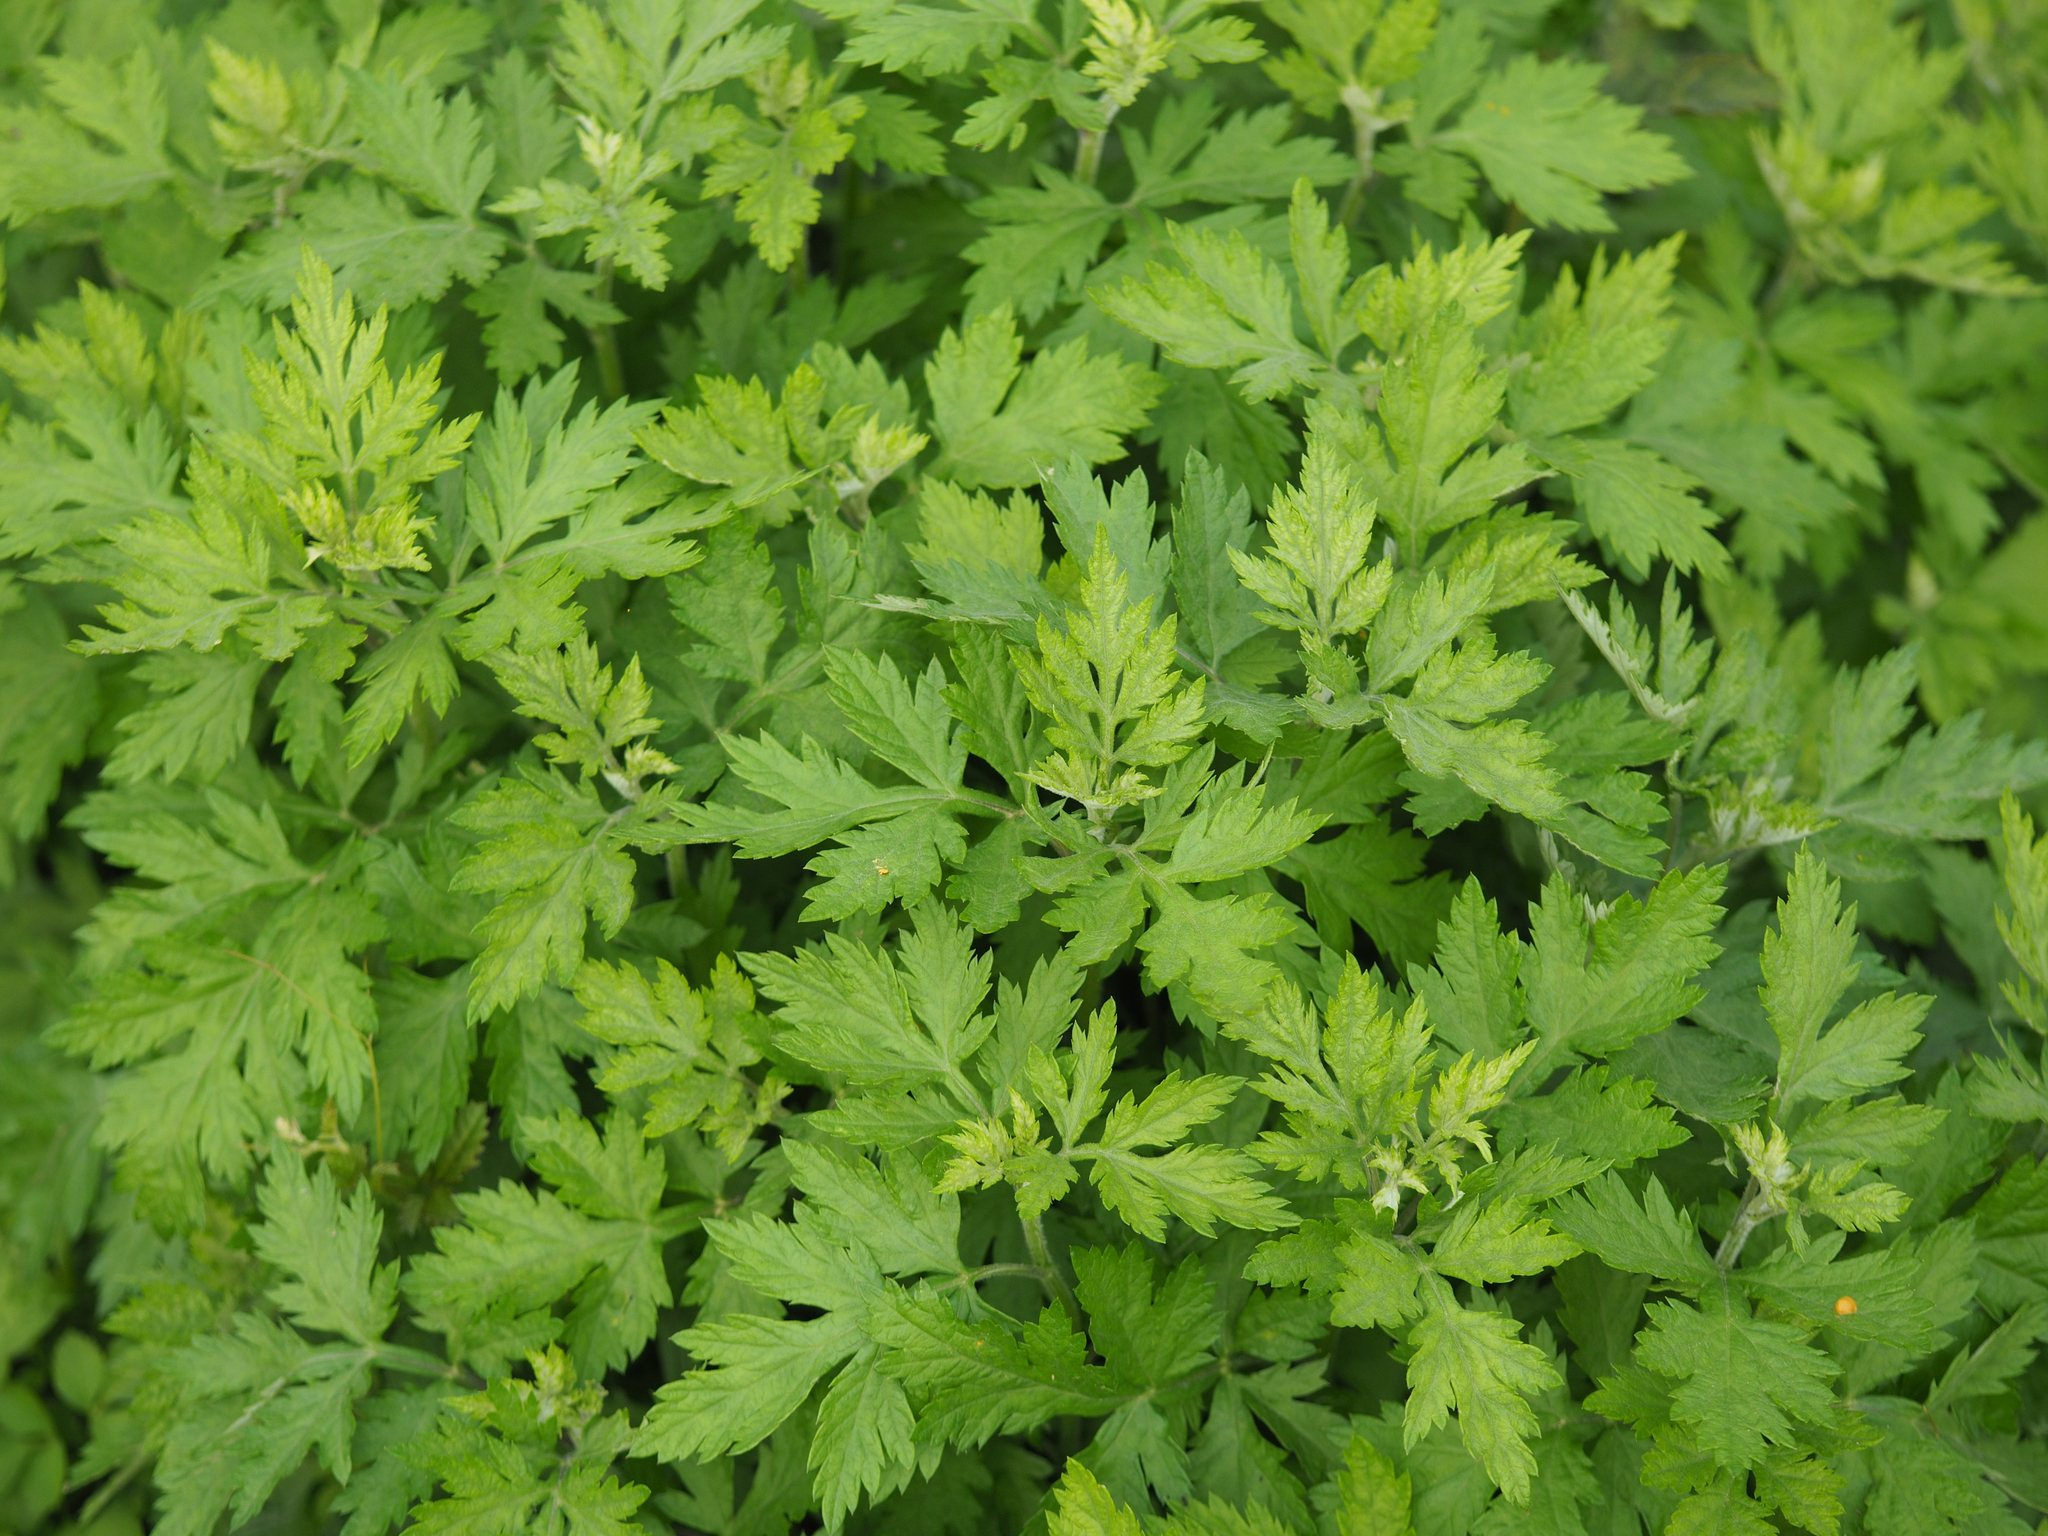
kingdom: Plantae
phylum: Tracheophyta
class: Magnoliopsida
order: Asterales
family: Asteraceae
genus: Artemisia
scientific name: Artemisia indica
